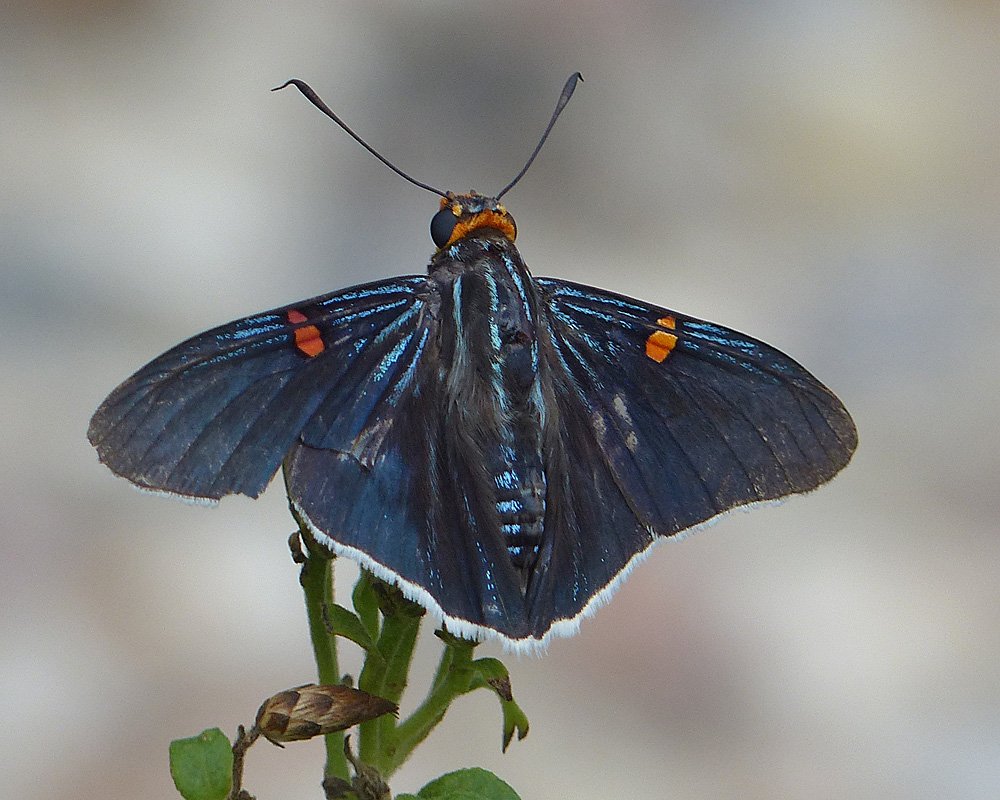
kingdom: Animalia
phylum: Arthropoda
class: Insecta
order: Lepidoptera
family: Hesperiidae
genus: Phocides
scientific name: Phocides polybius
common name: Guava Skipper
